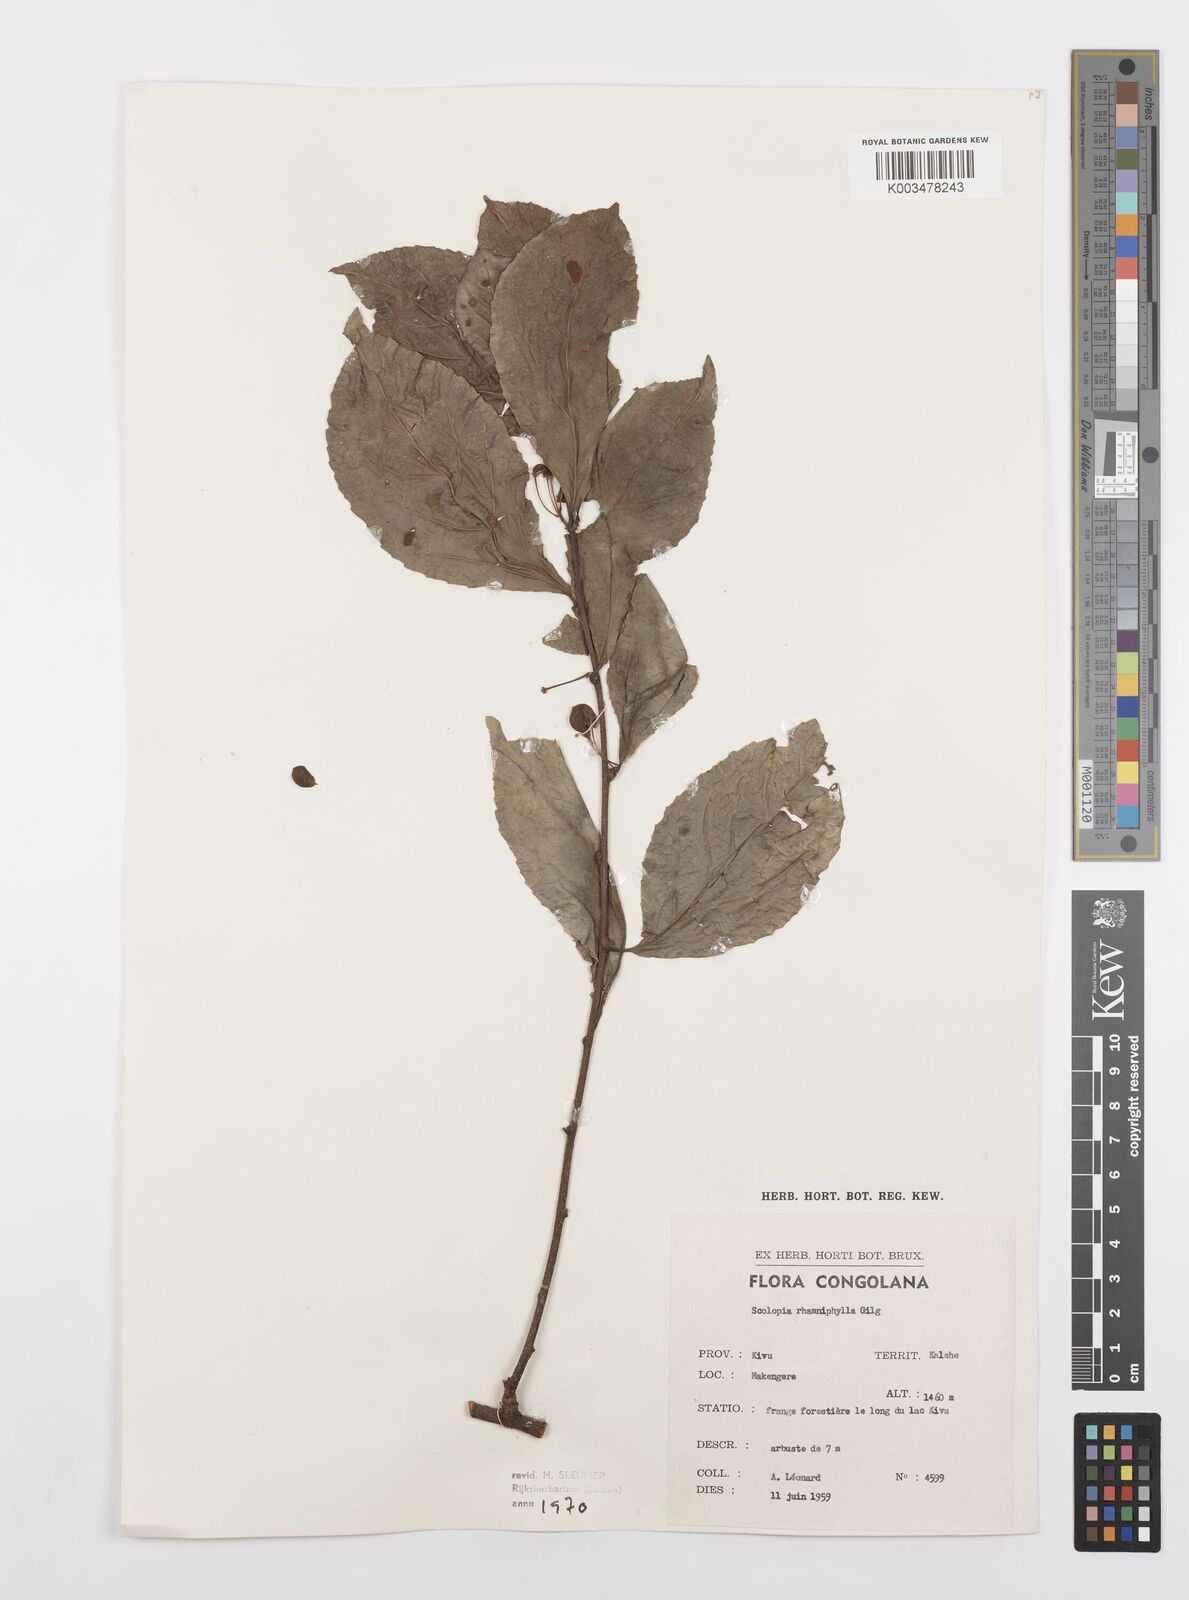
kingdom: Plantae
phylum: Tracheophyta
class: Magnoliopsida
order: Malpighiales
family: Salicaceae
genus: Scolopia
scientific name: Scolopia rhamniphylla
